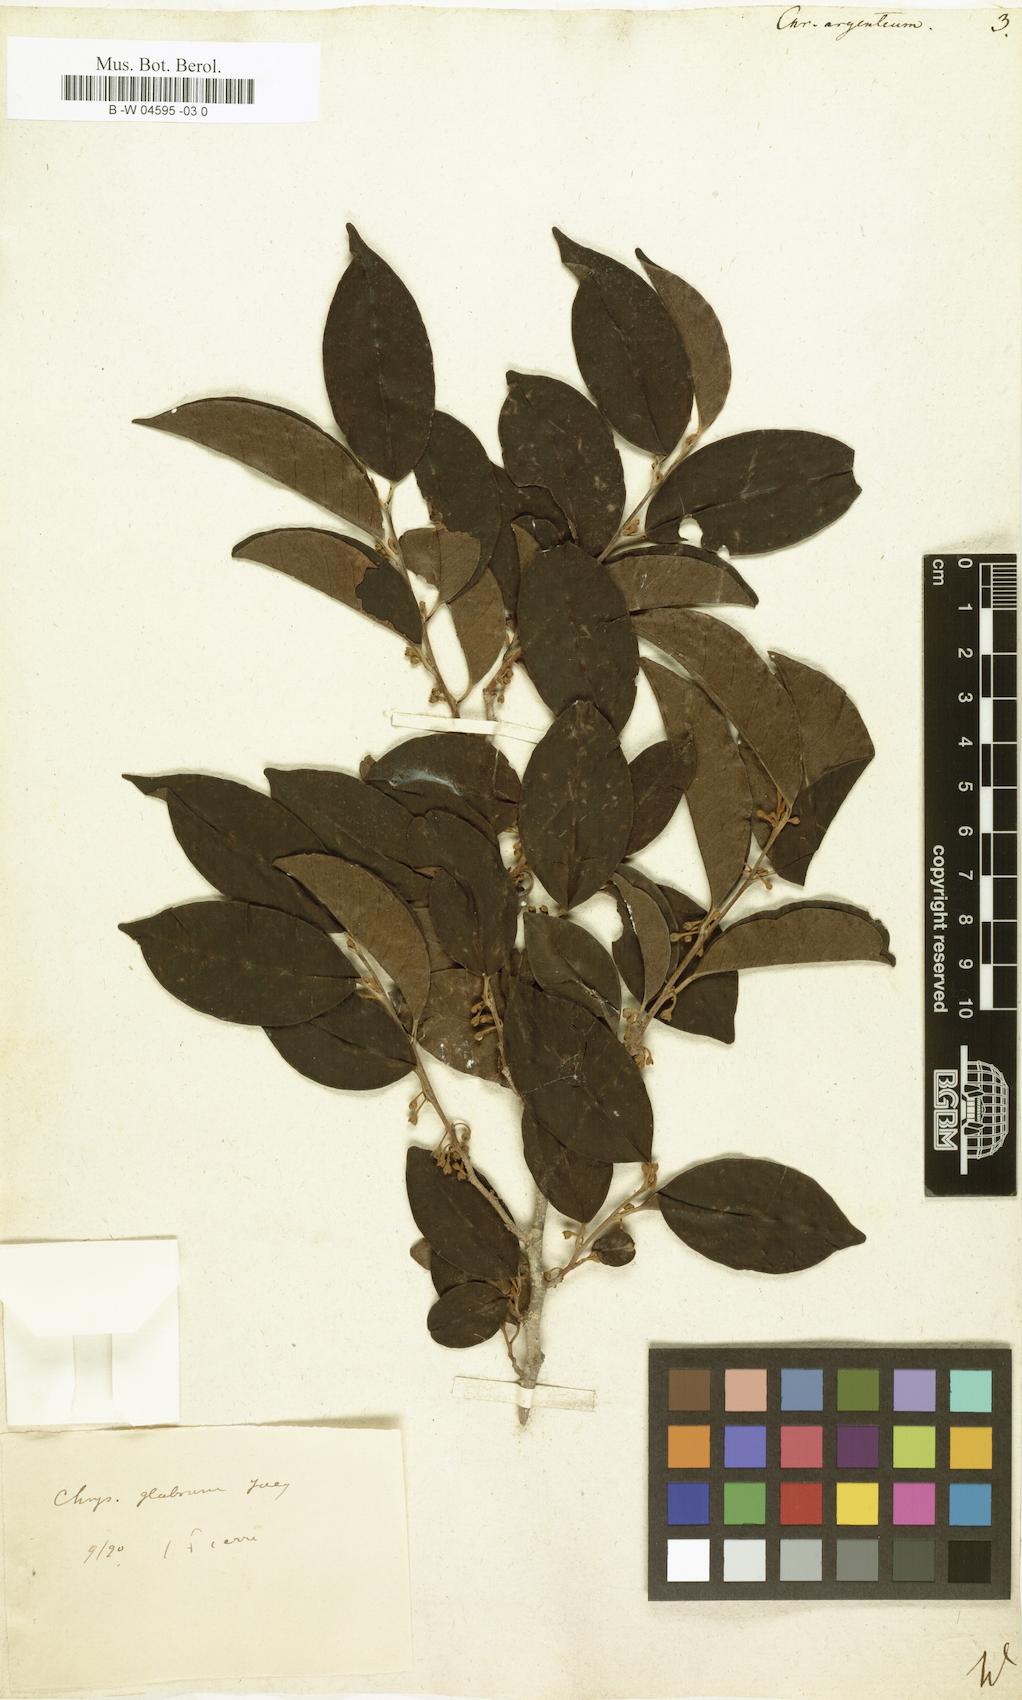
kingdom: Plantae
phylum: Tracheophyta
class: Magnoliopsida
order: Ericales
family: Sapotaceae
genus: Chrysophyllum
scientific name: Chrysophyllum argenteum
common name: Smooth star apple
